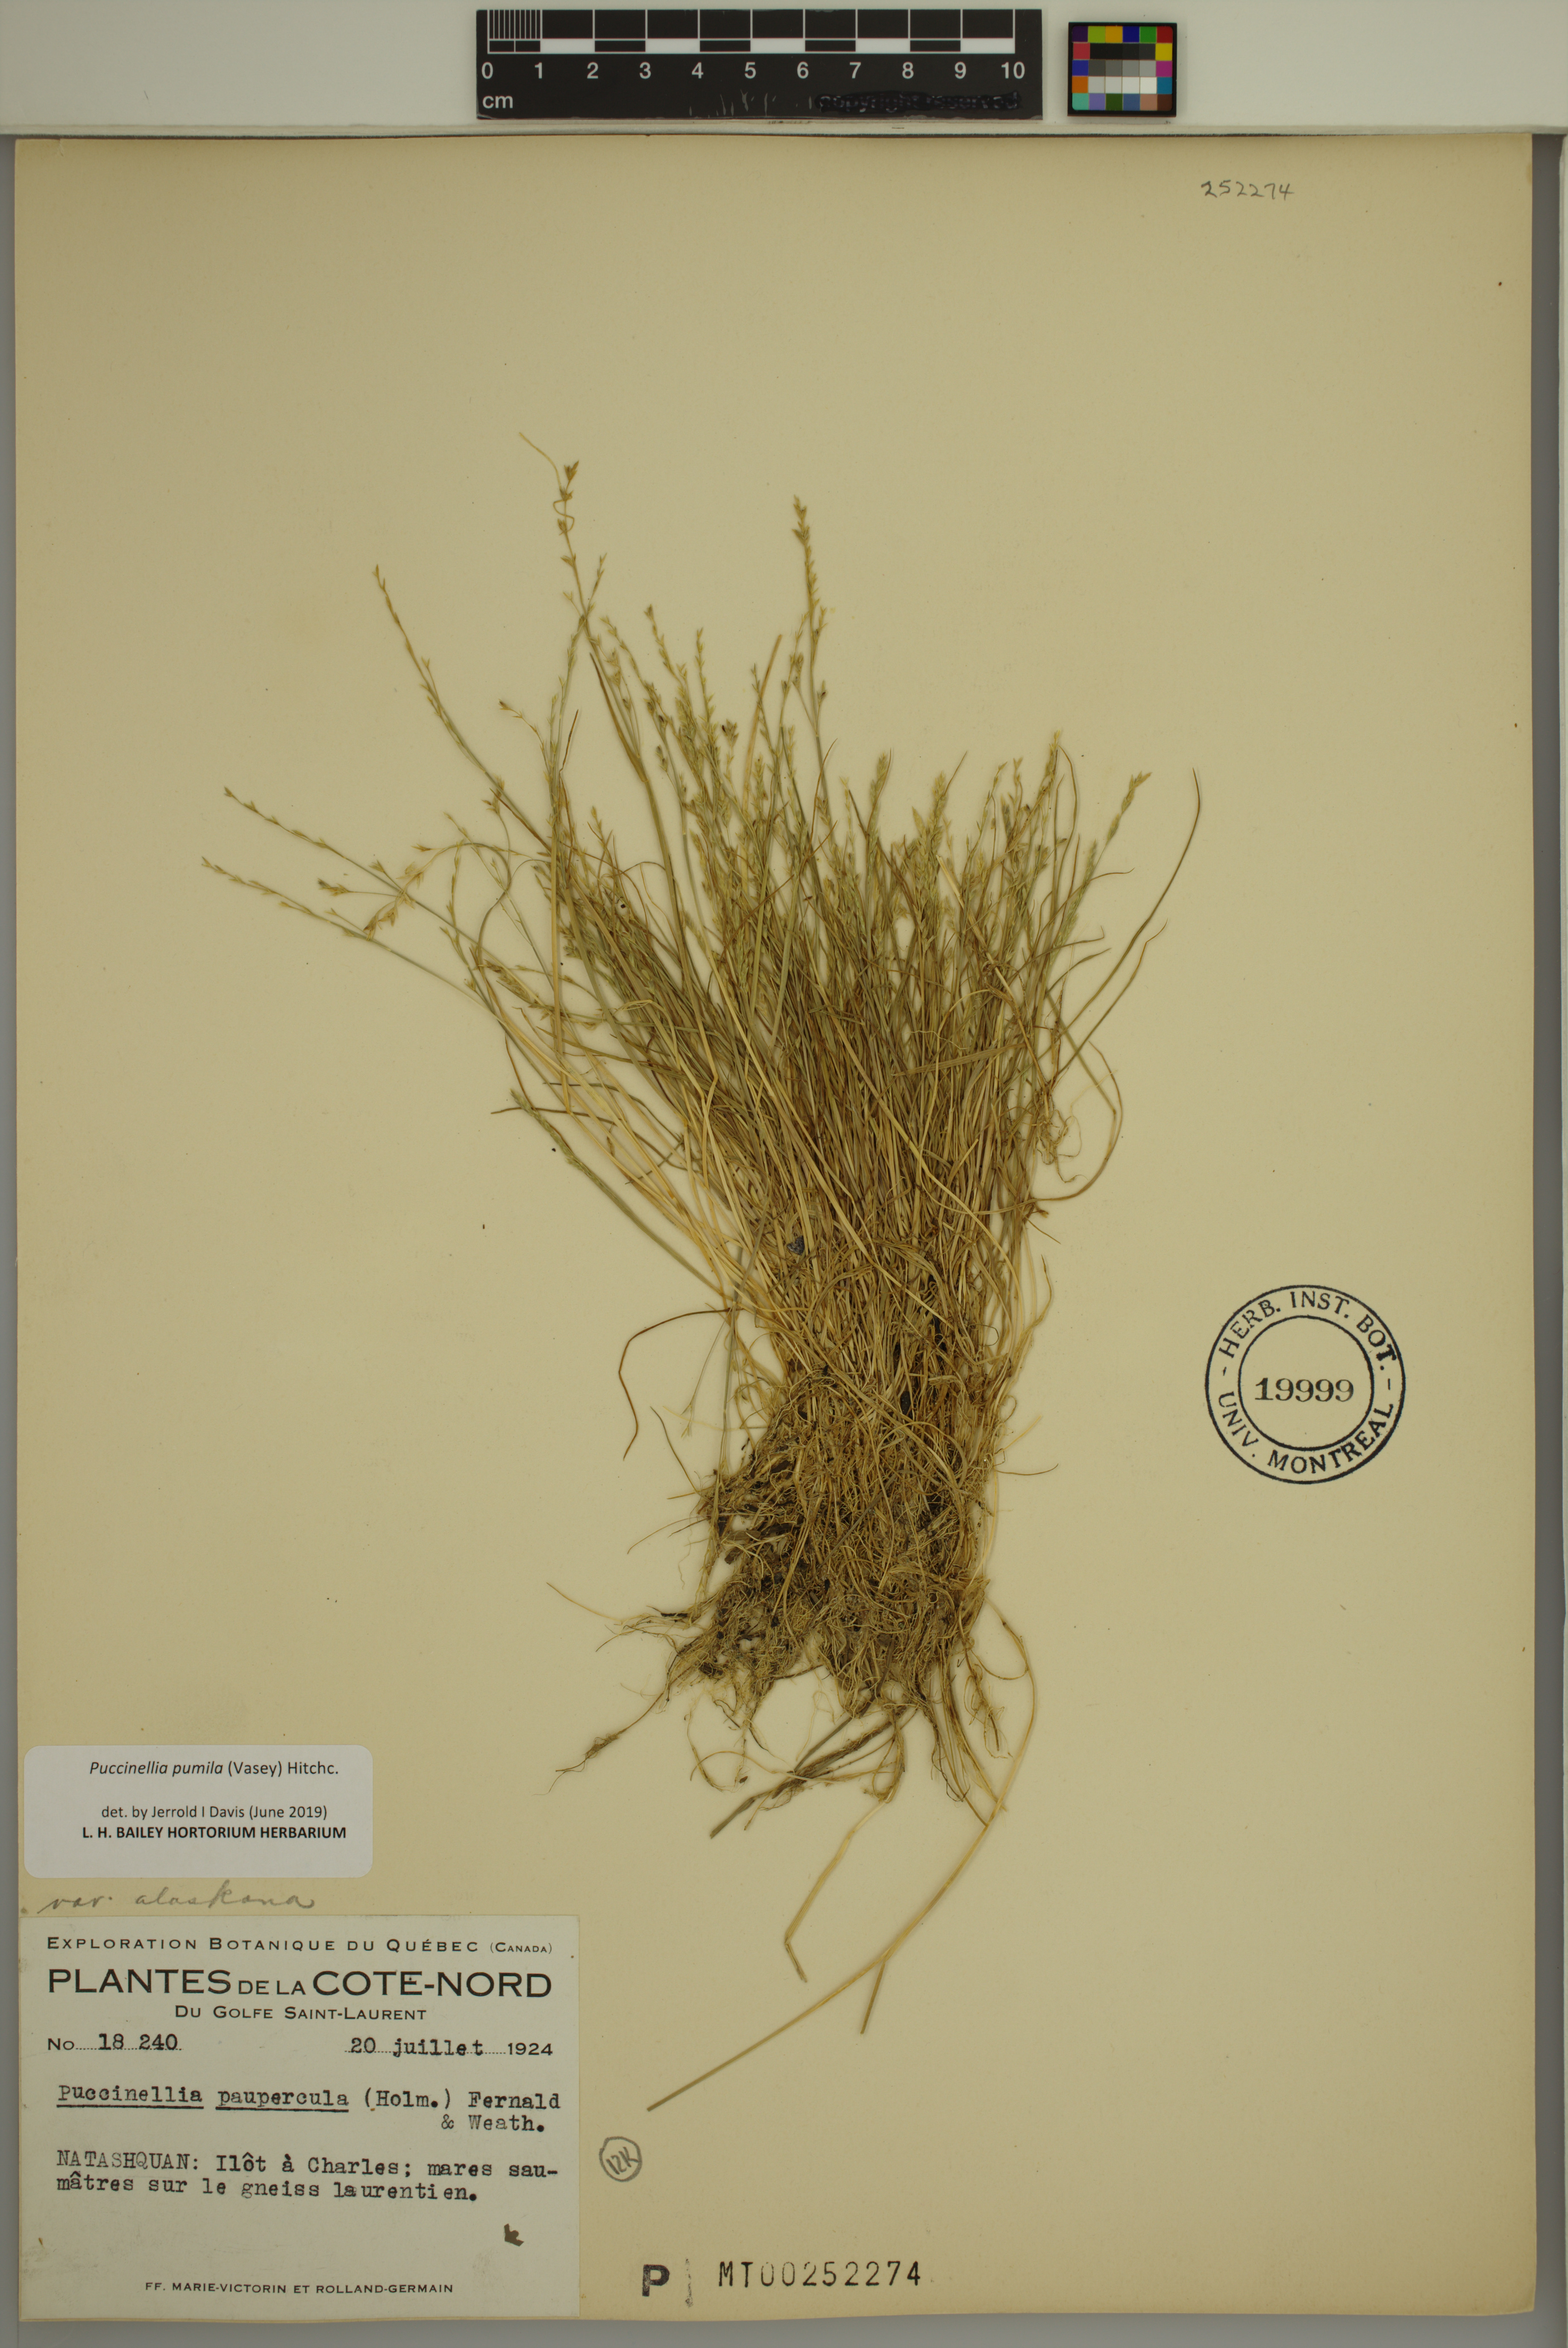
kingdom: Plantae
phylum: Tracheophyta
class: Liliopsida
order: Poales
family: Poaceae
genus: Puccinellia
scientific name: Puccinellia pumila
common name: Dwarf alkaligrass
